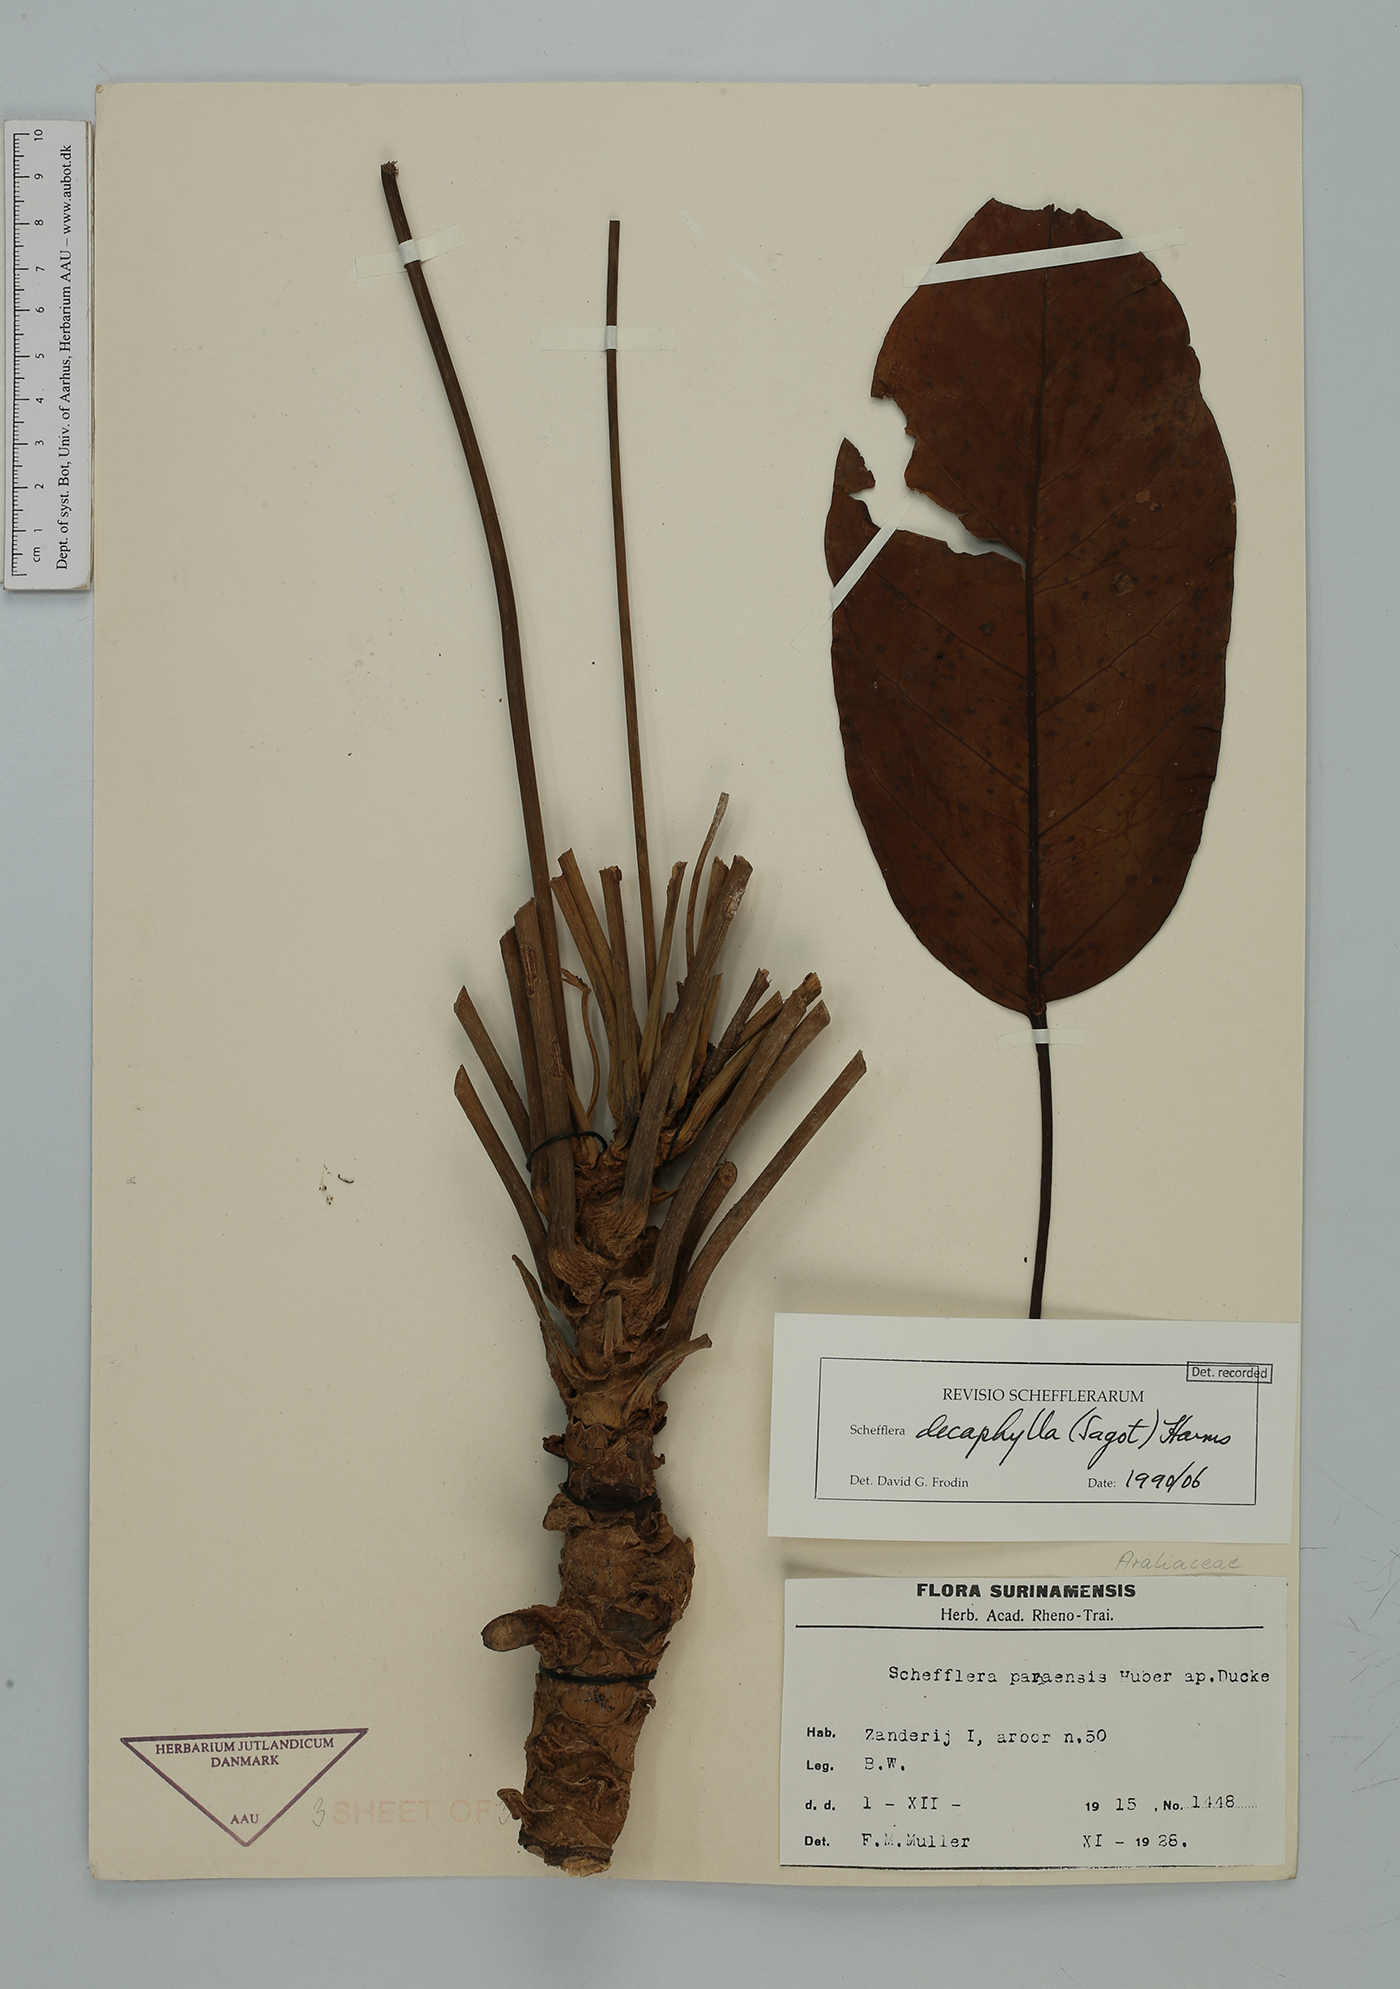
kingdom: Plantae
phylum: Tracheophyta
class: Magnoliopsida
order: Apiales
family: Araliaceae
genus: Didymopanax
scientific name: Didymopanax decaphyllus
